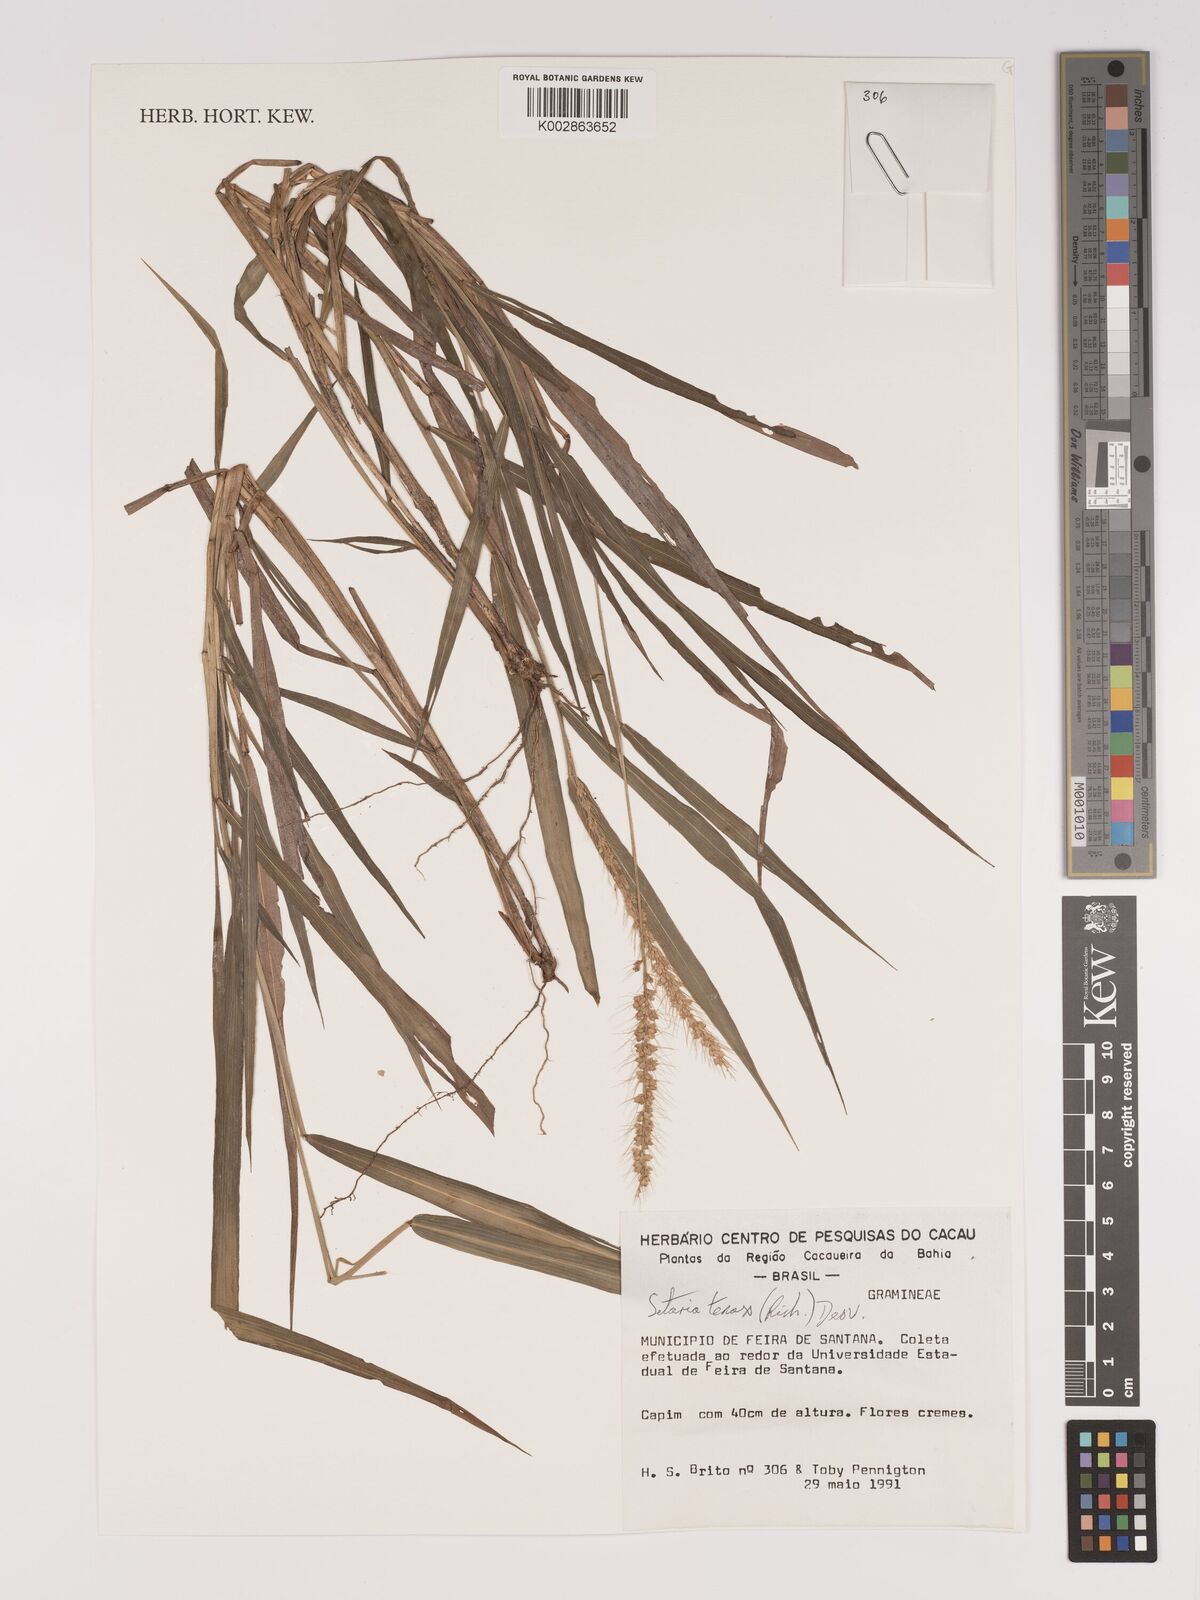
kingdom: Plantae
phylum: Tracheophyta
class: Liliopsida
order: Poales
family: Poaceae
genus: Setaria
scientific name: Setaria tenax
